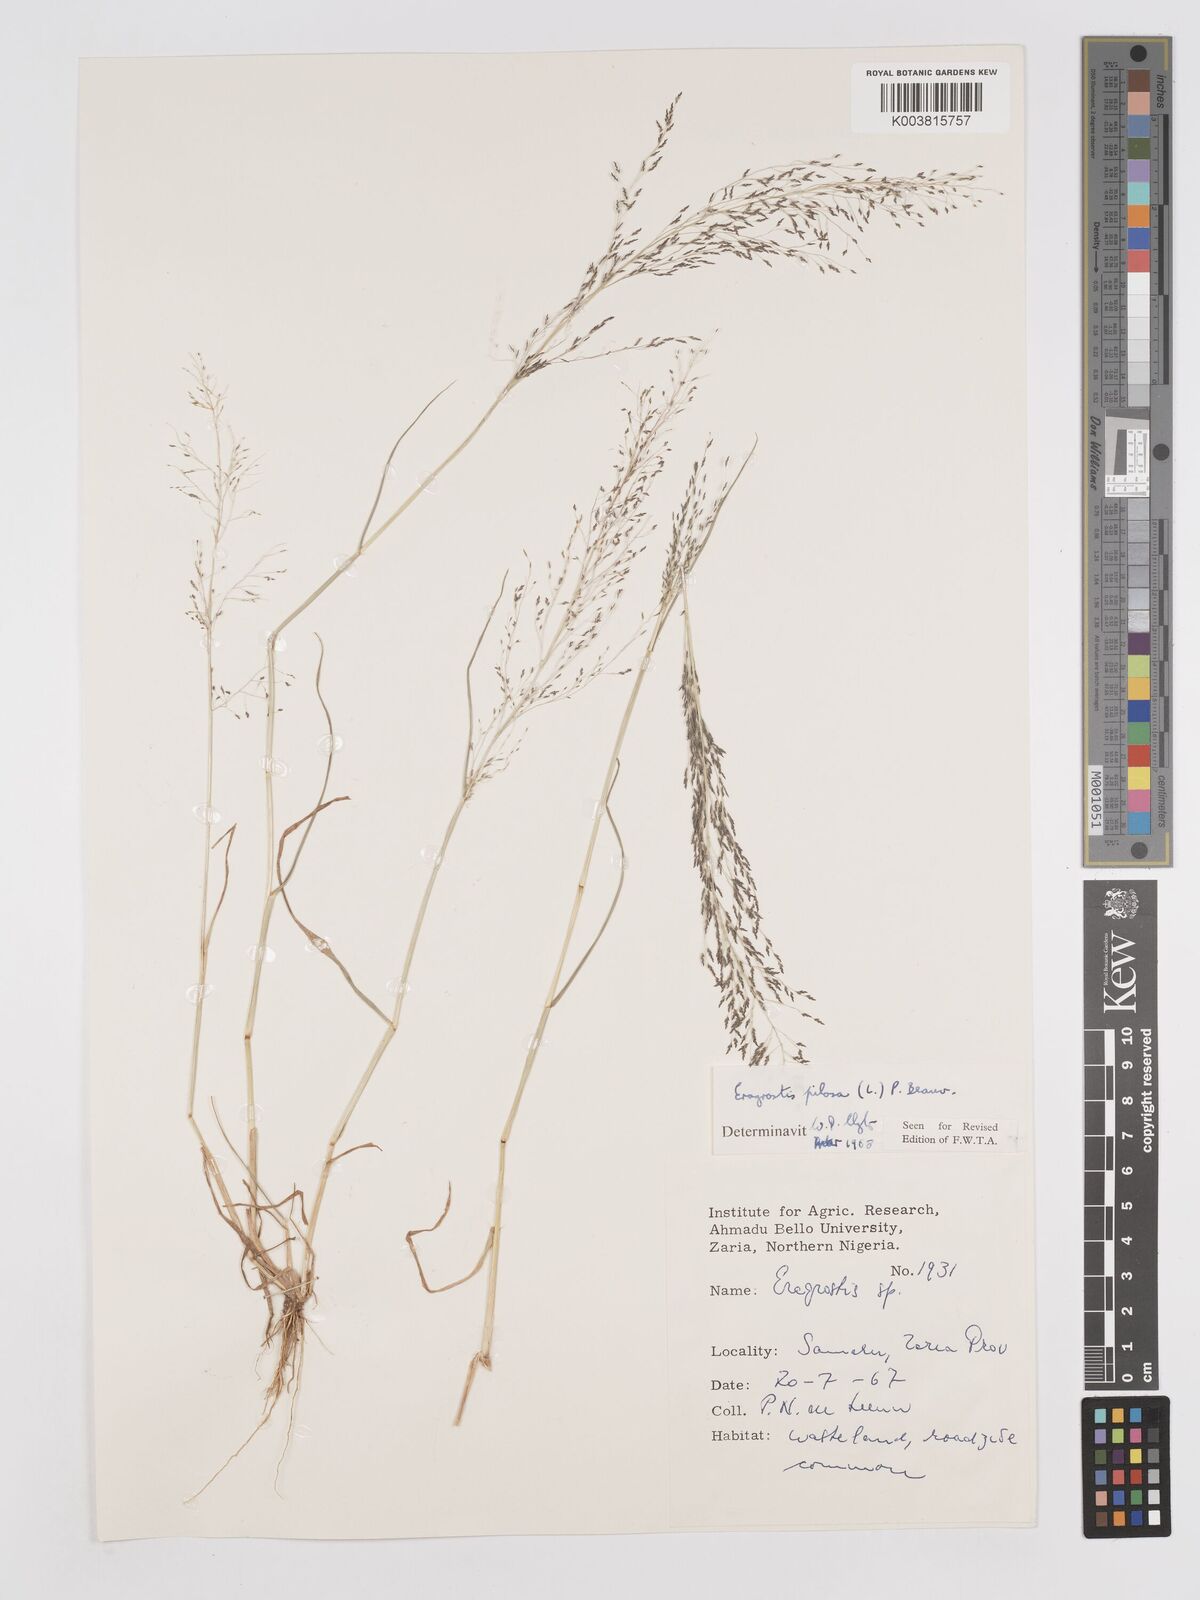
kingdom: Plantae
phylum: Tracheophyta
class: Liliopsida
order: Poales
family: Poaceae
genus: Eragrostis
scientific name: Eragrostis pilosa
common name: Indian lovegrass
